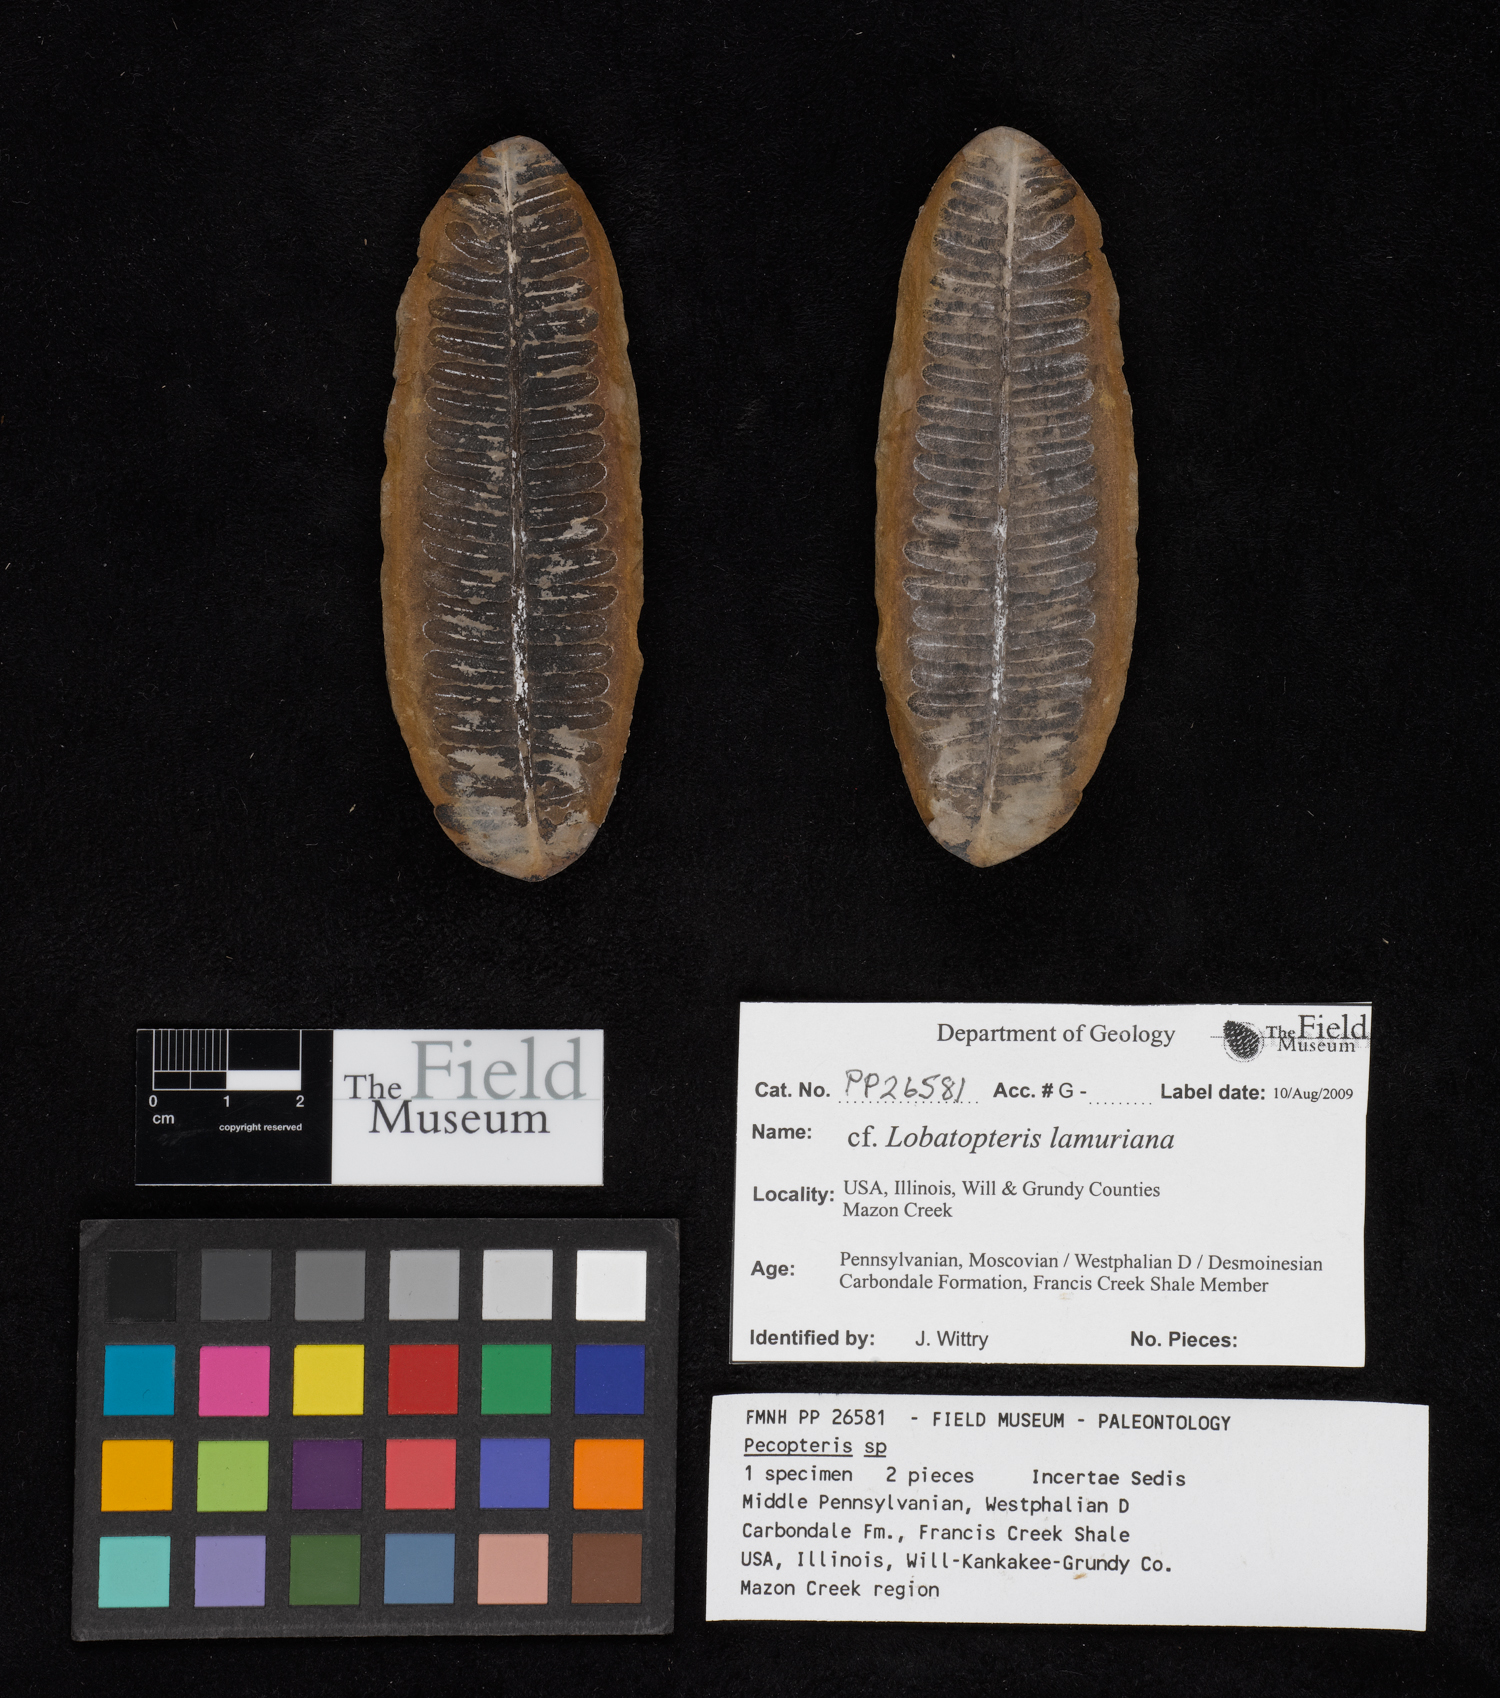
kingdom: Plantae
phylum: Tracheophyta
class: Polypodiopsida
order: Marattiales
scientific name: Marattiales
